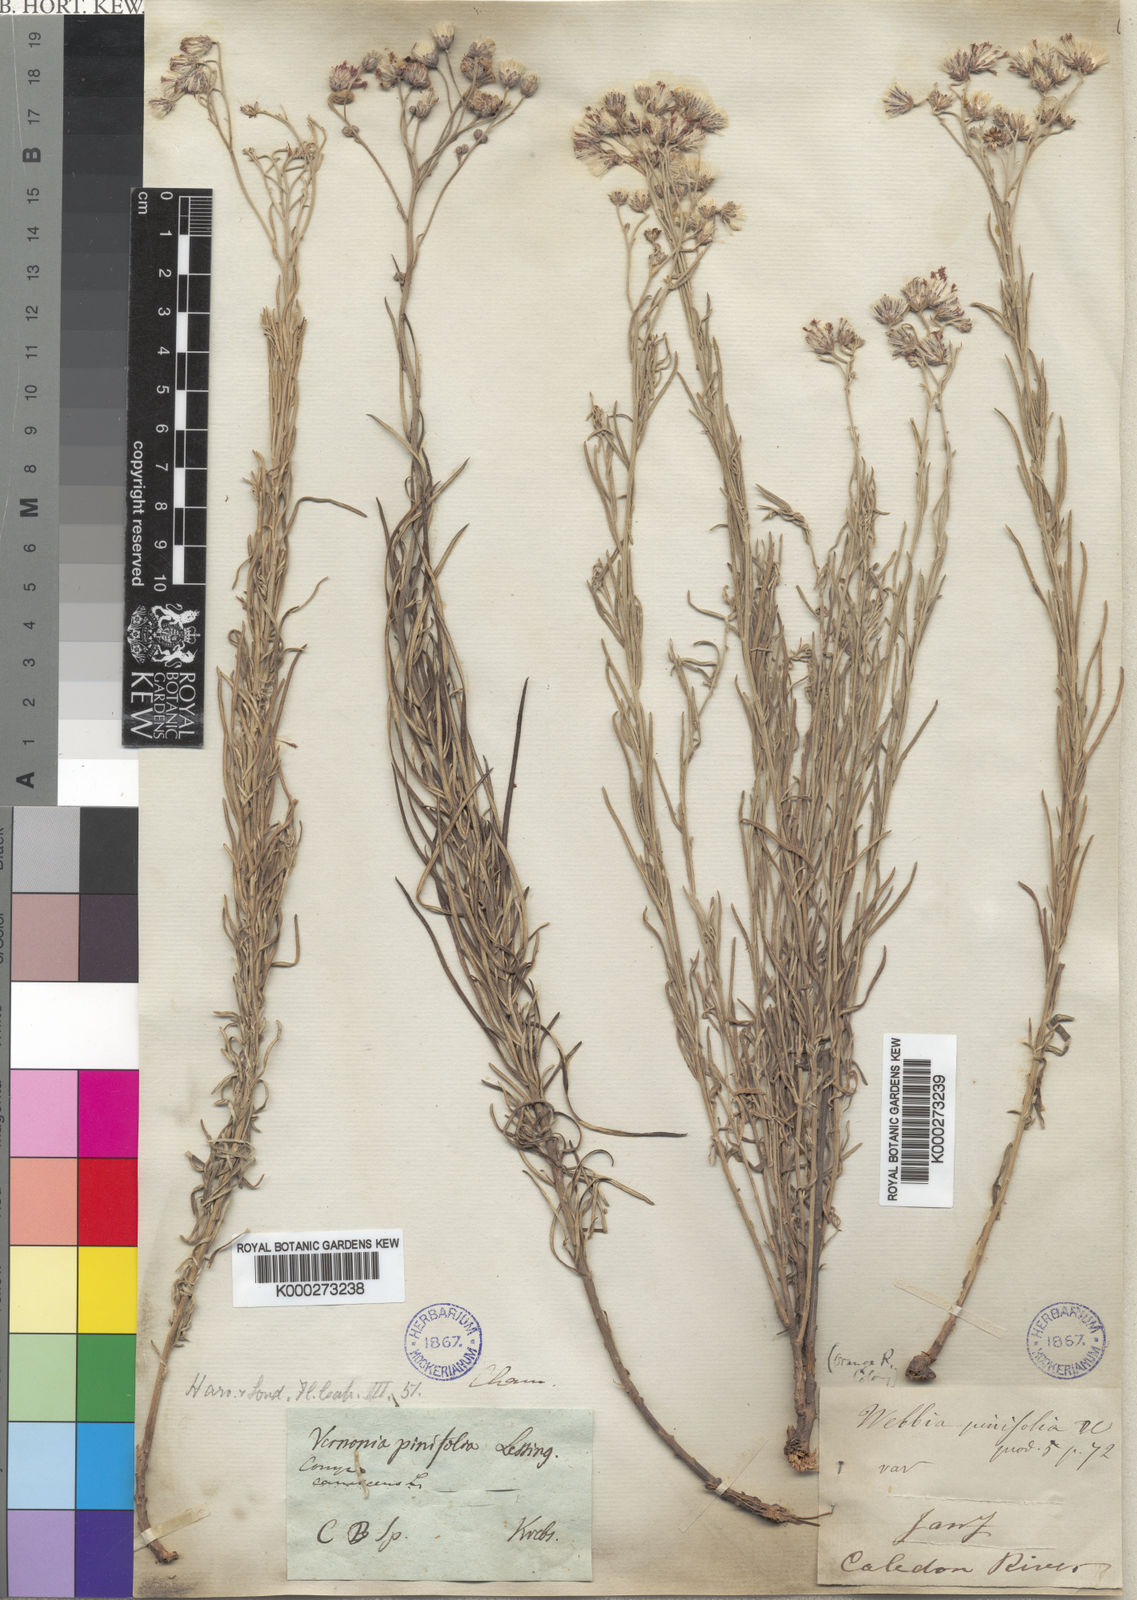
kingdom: Plantae
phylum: Tracheophyta
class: Magnoliopsida
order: Asterales
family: Asteraceae
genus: Hilliardiella
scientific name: Hilliardiella capensis
